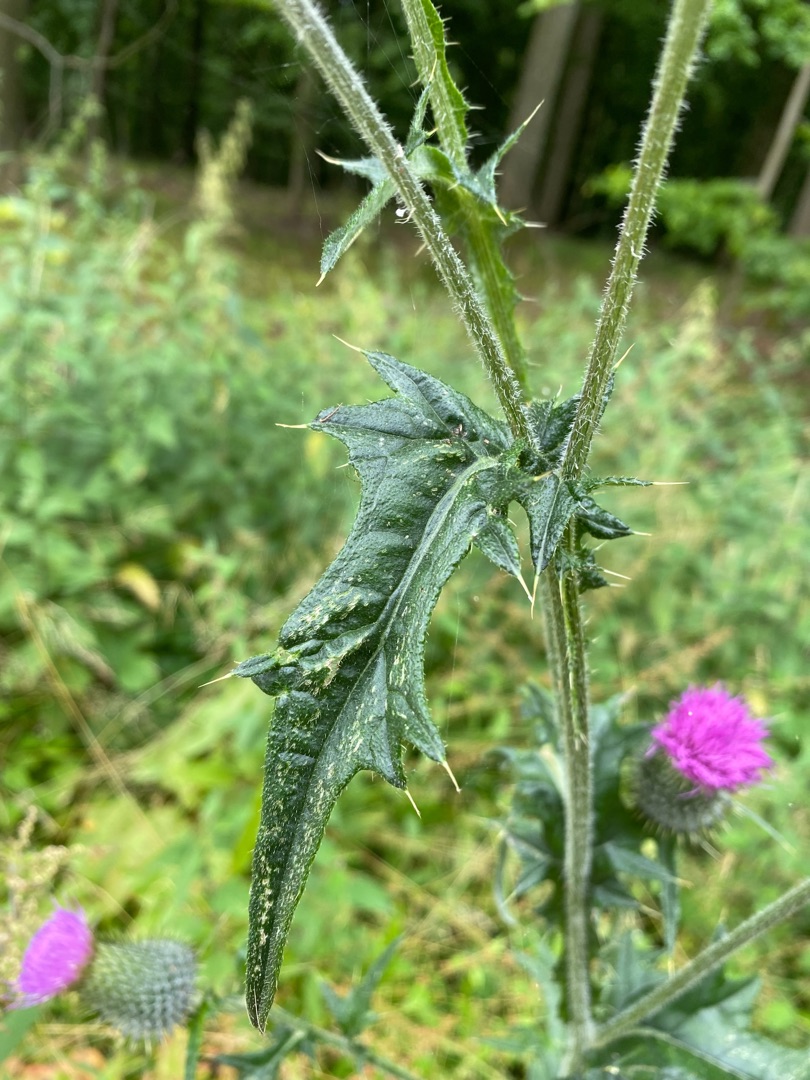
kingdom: Plantae
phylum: Tracheophyta
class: Magnoliopsida
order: Asterales
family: Asteraceae
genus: Cirsium
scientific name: Cirsium vulgare
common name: Horse-tidsel
